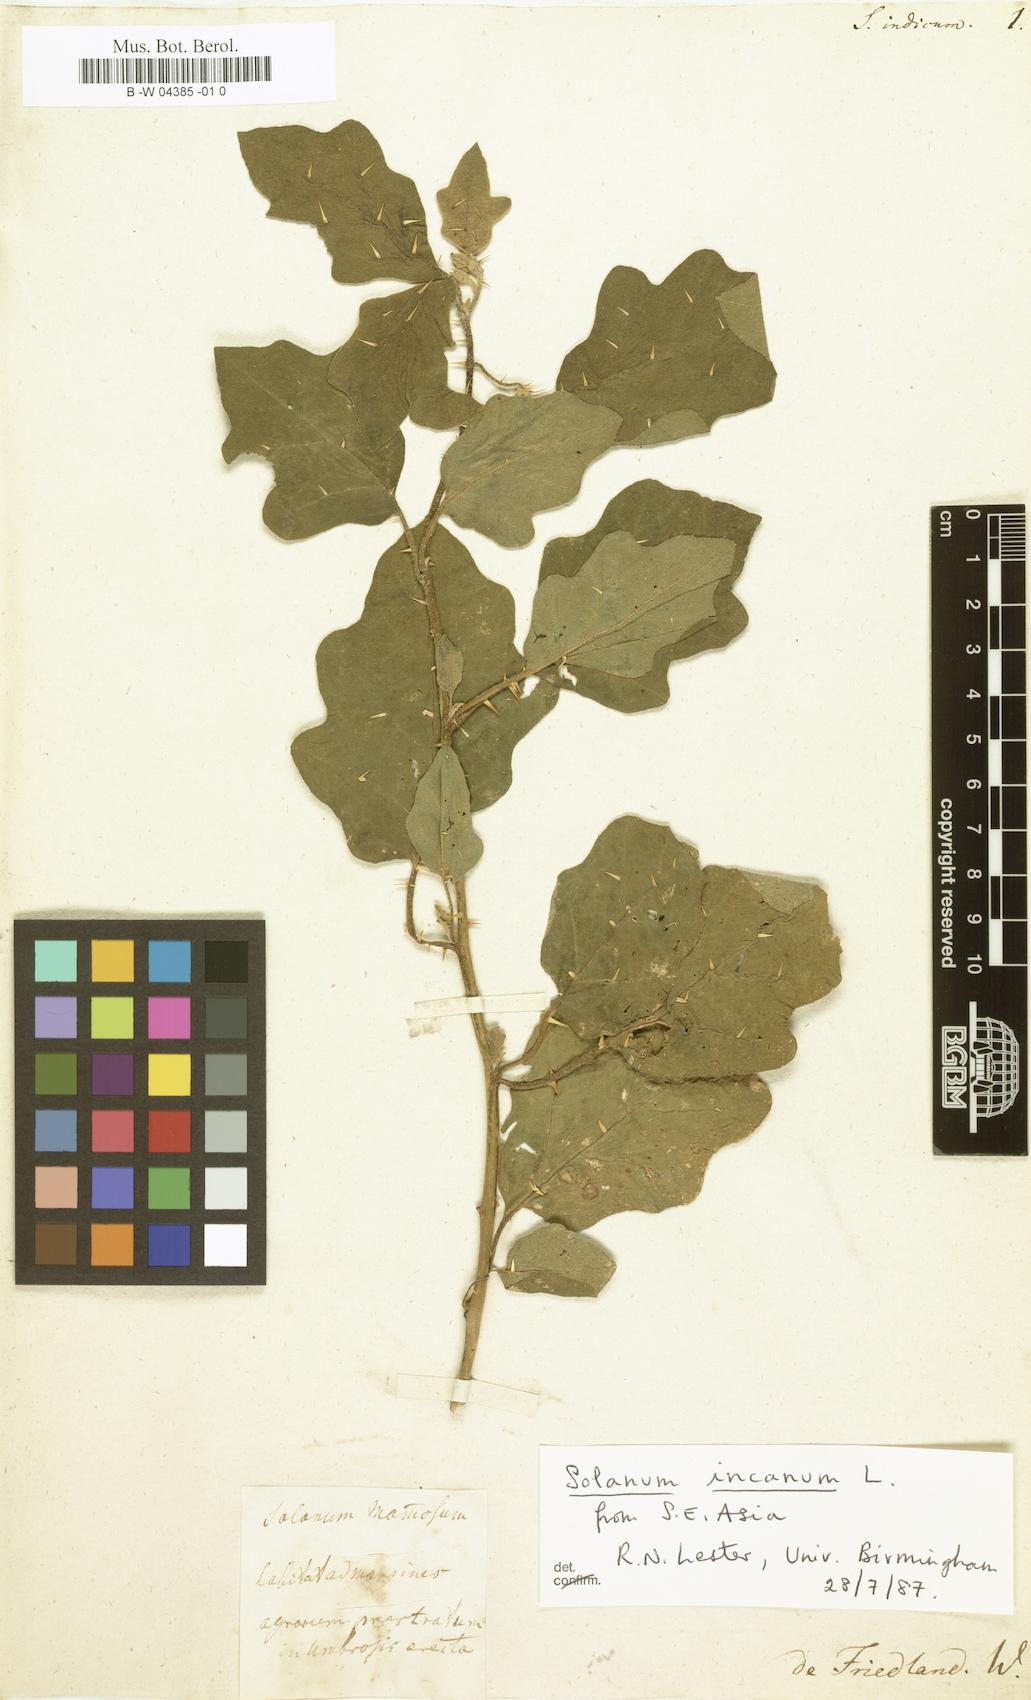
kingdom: Plantae
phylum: Tracheophyta
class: Magnoliopsida
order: Solanales
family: Solanaceae
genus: Solanum
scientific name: Solanum
